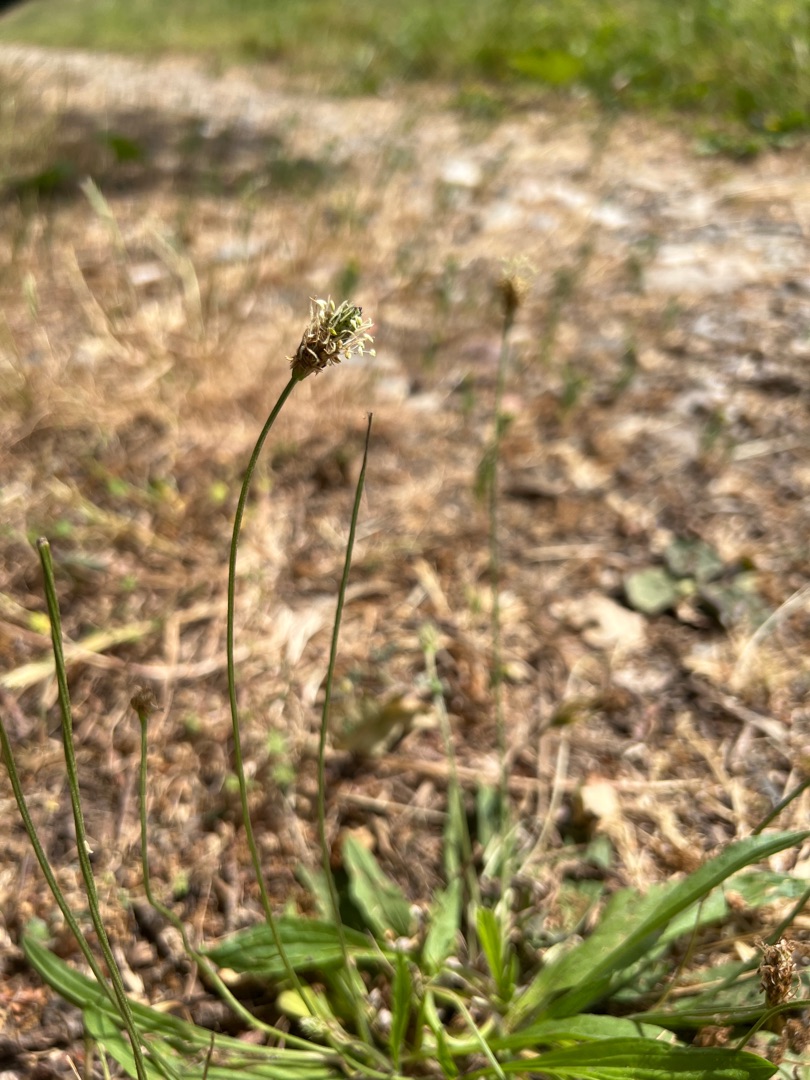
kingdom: Plantae
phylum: Tracheophyta
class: Magnoliopsida
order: Lamiales
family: Plantaginaceae
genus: Plantago
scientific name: Plantago lanceolata
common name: Lancet-vejbred
